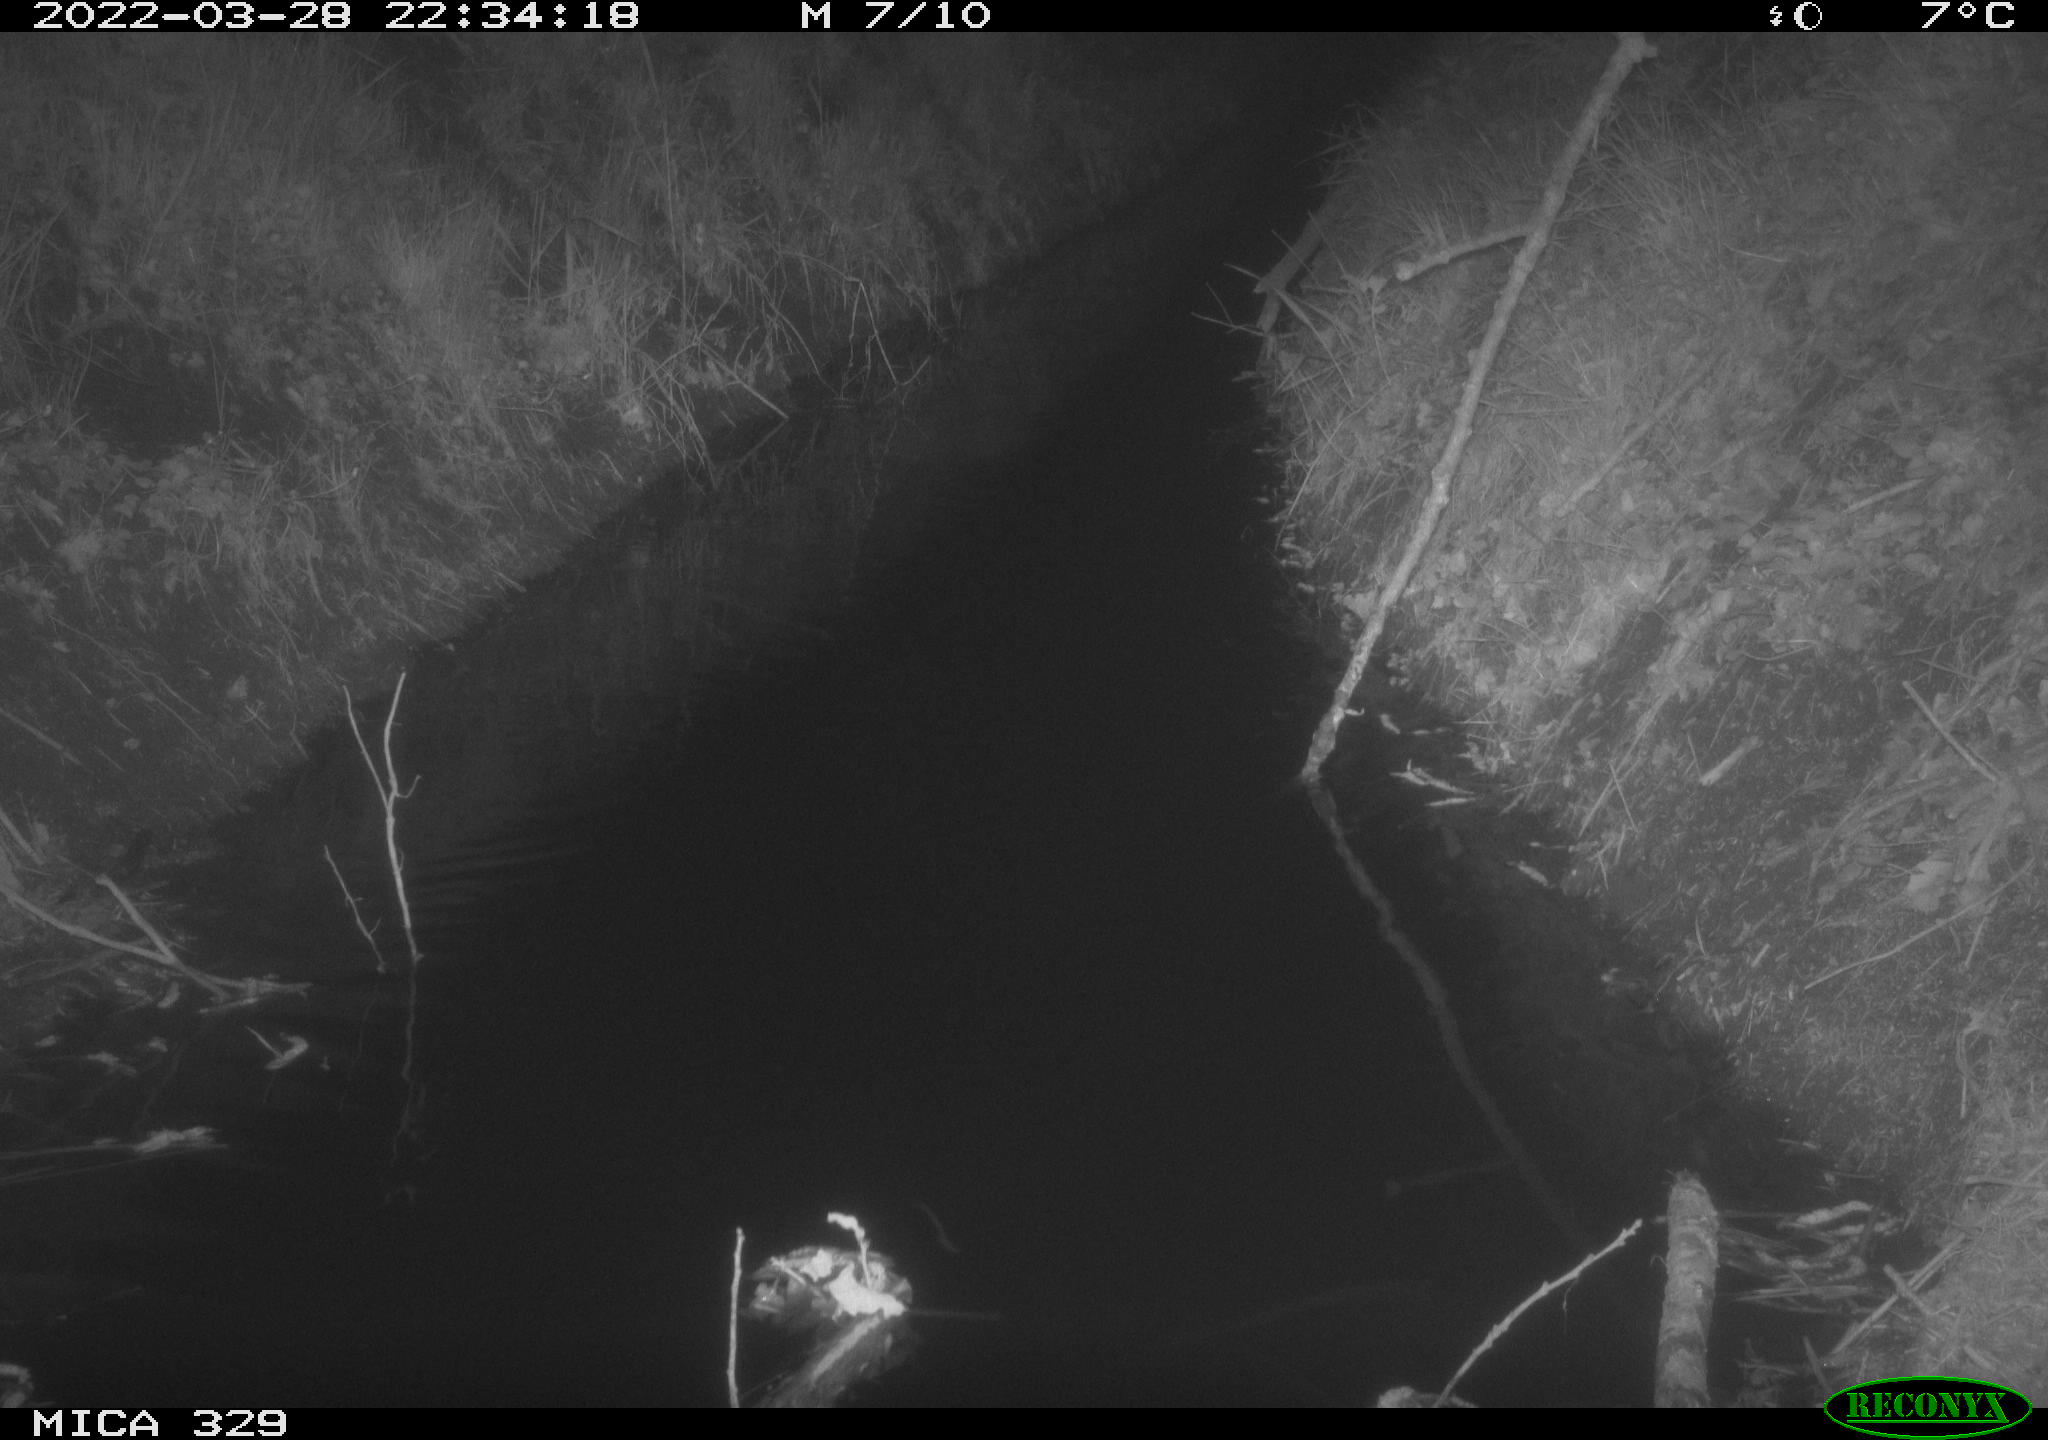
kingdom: Animalia
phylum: Chordata
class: Mammalia
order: Rodentia
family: Muridae
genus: Rattus
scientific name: Rattus norvegicus
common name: Brown rat
